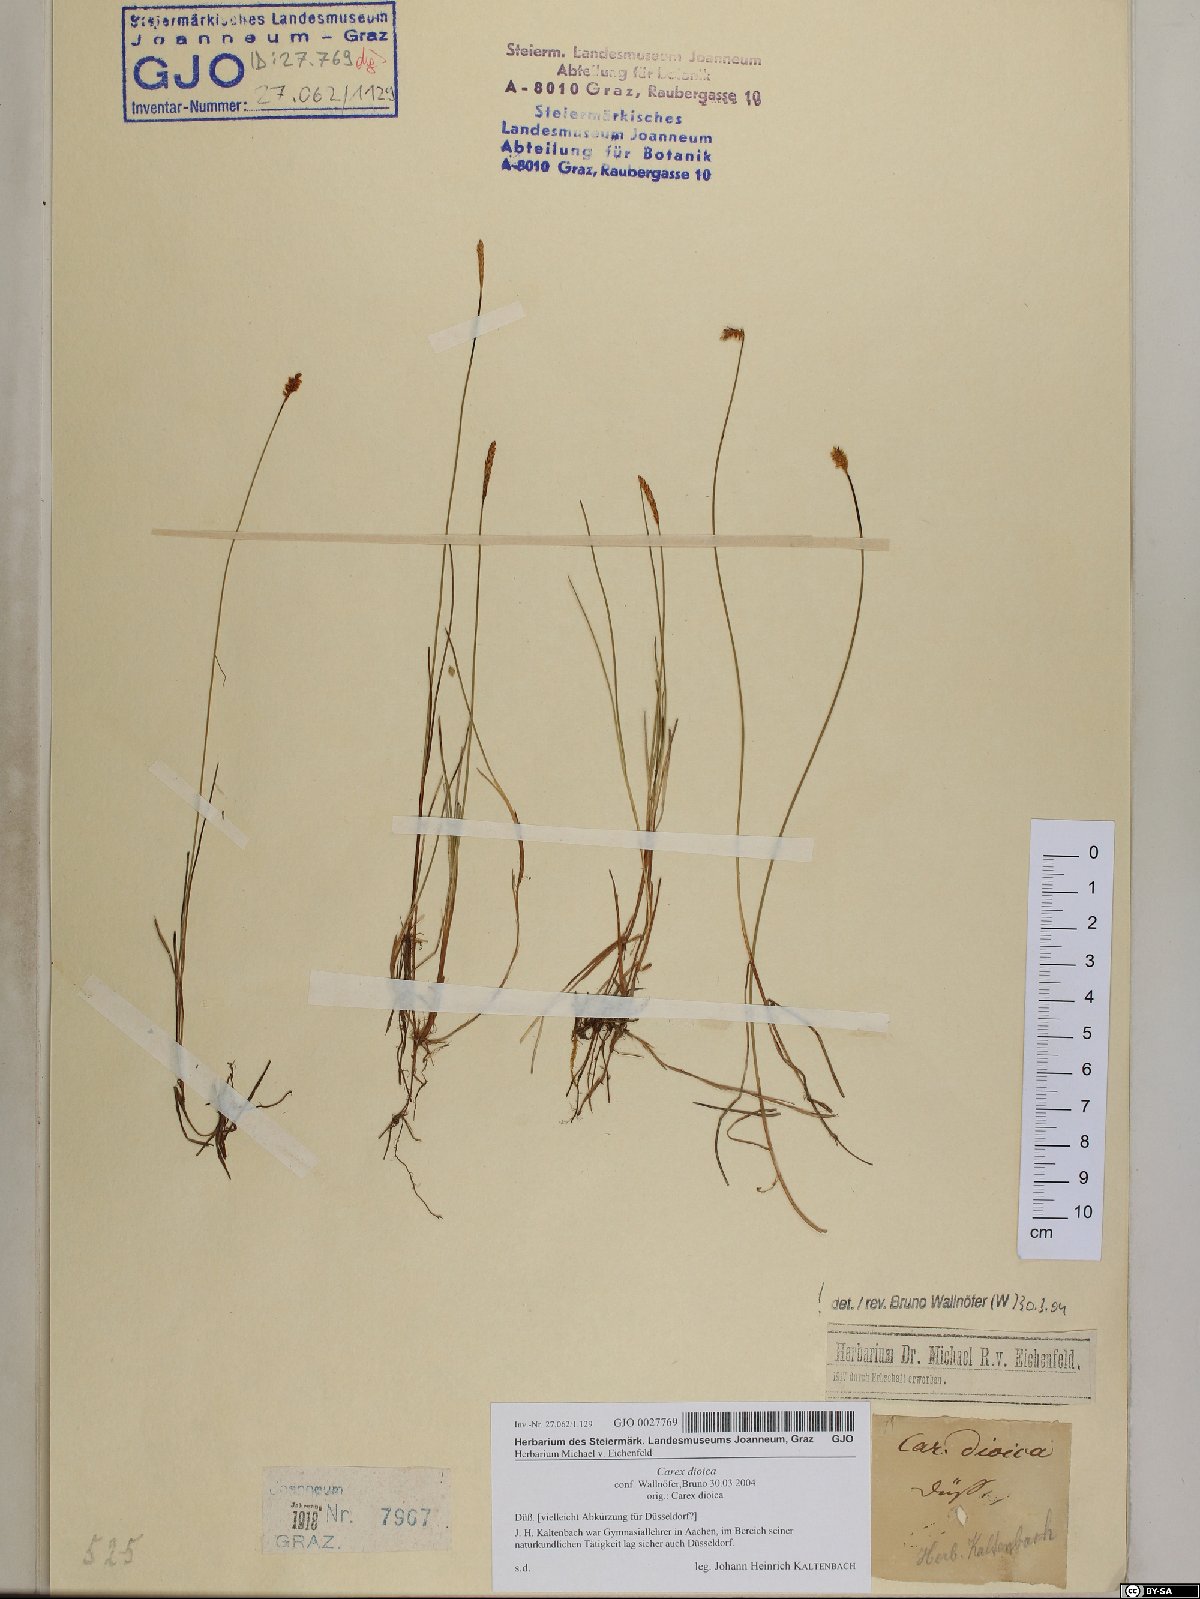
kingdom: Plantae
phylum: Tracheophyta
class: Liliopsida
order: Poales
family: Cyperaceae
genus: Carex
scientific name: Carex dioica
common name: Dioecious sedge
